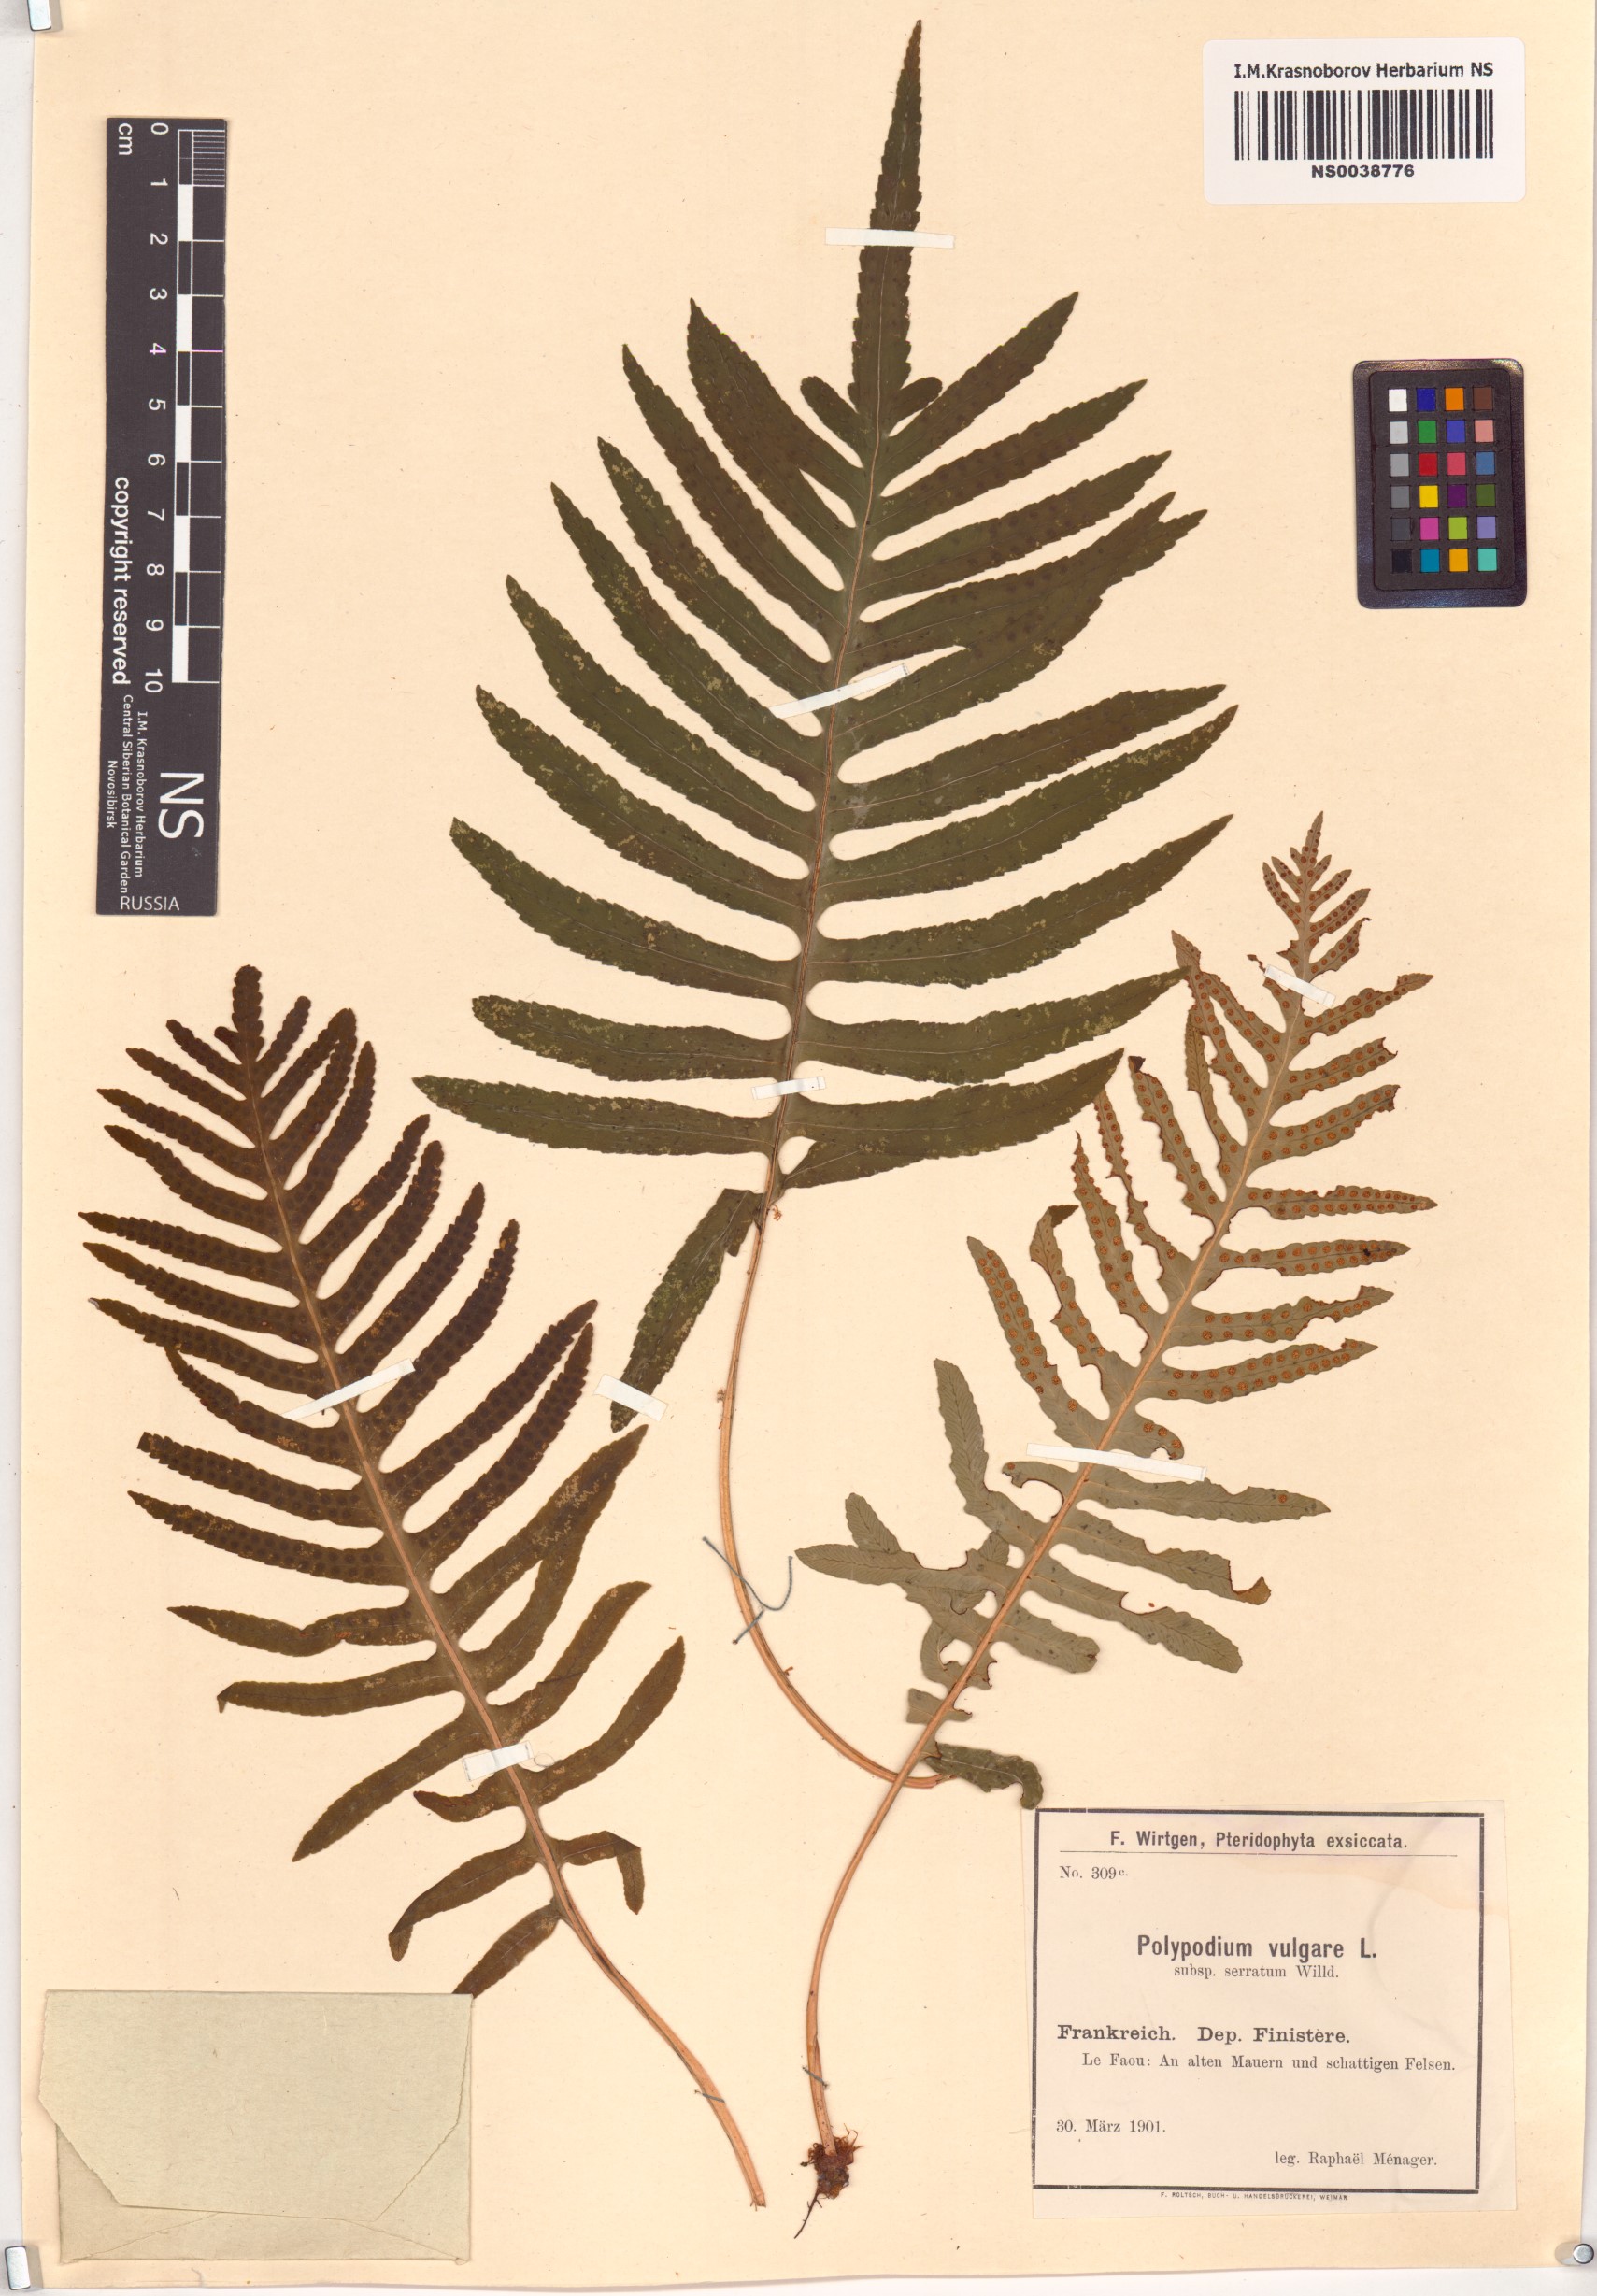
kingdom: Plantae
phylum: Tracheophyta
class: Polypodiopsida
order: Polypodiales
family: Polypodiaceae
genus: Polypodium
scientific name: Polypodium cambricum
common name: Southern polypody
